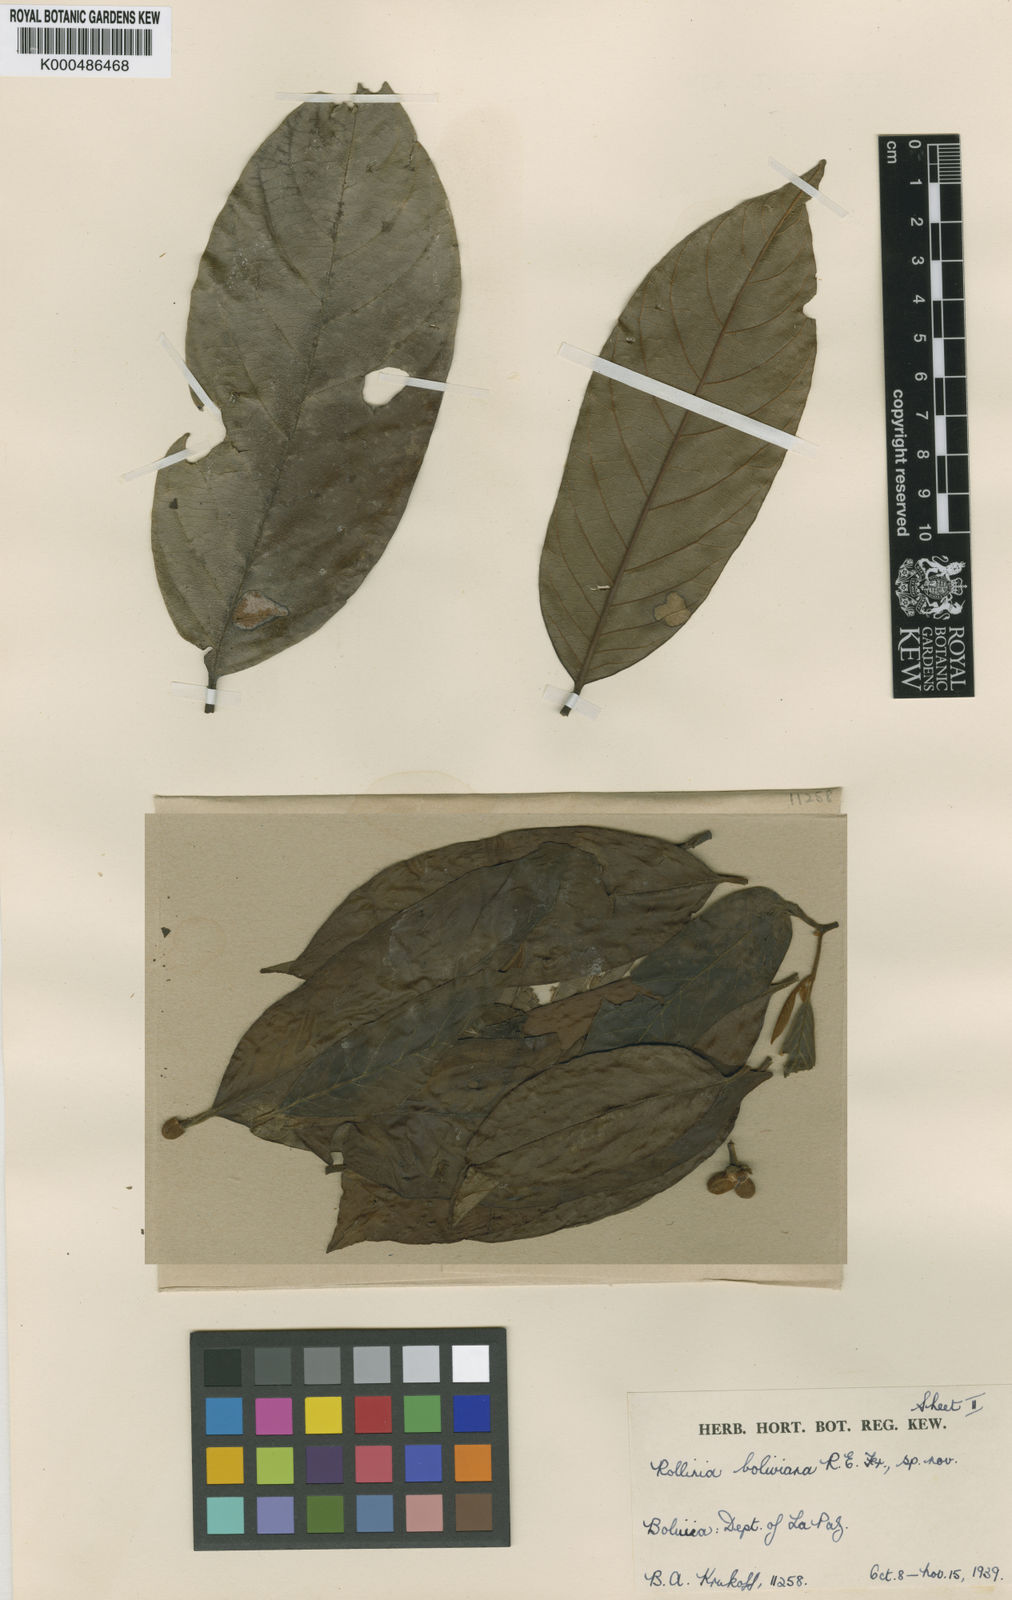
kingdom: Plantae
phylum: Tracheophyta
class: Magnoliopsida
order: Magnoliales
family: Annonaceae
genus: Annona
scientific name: Annona boliviana
